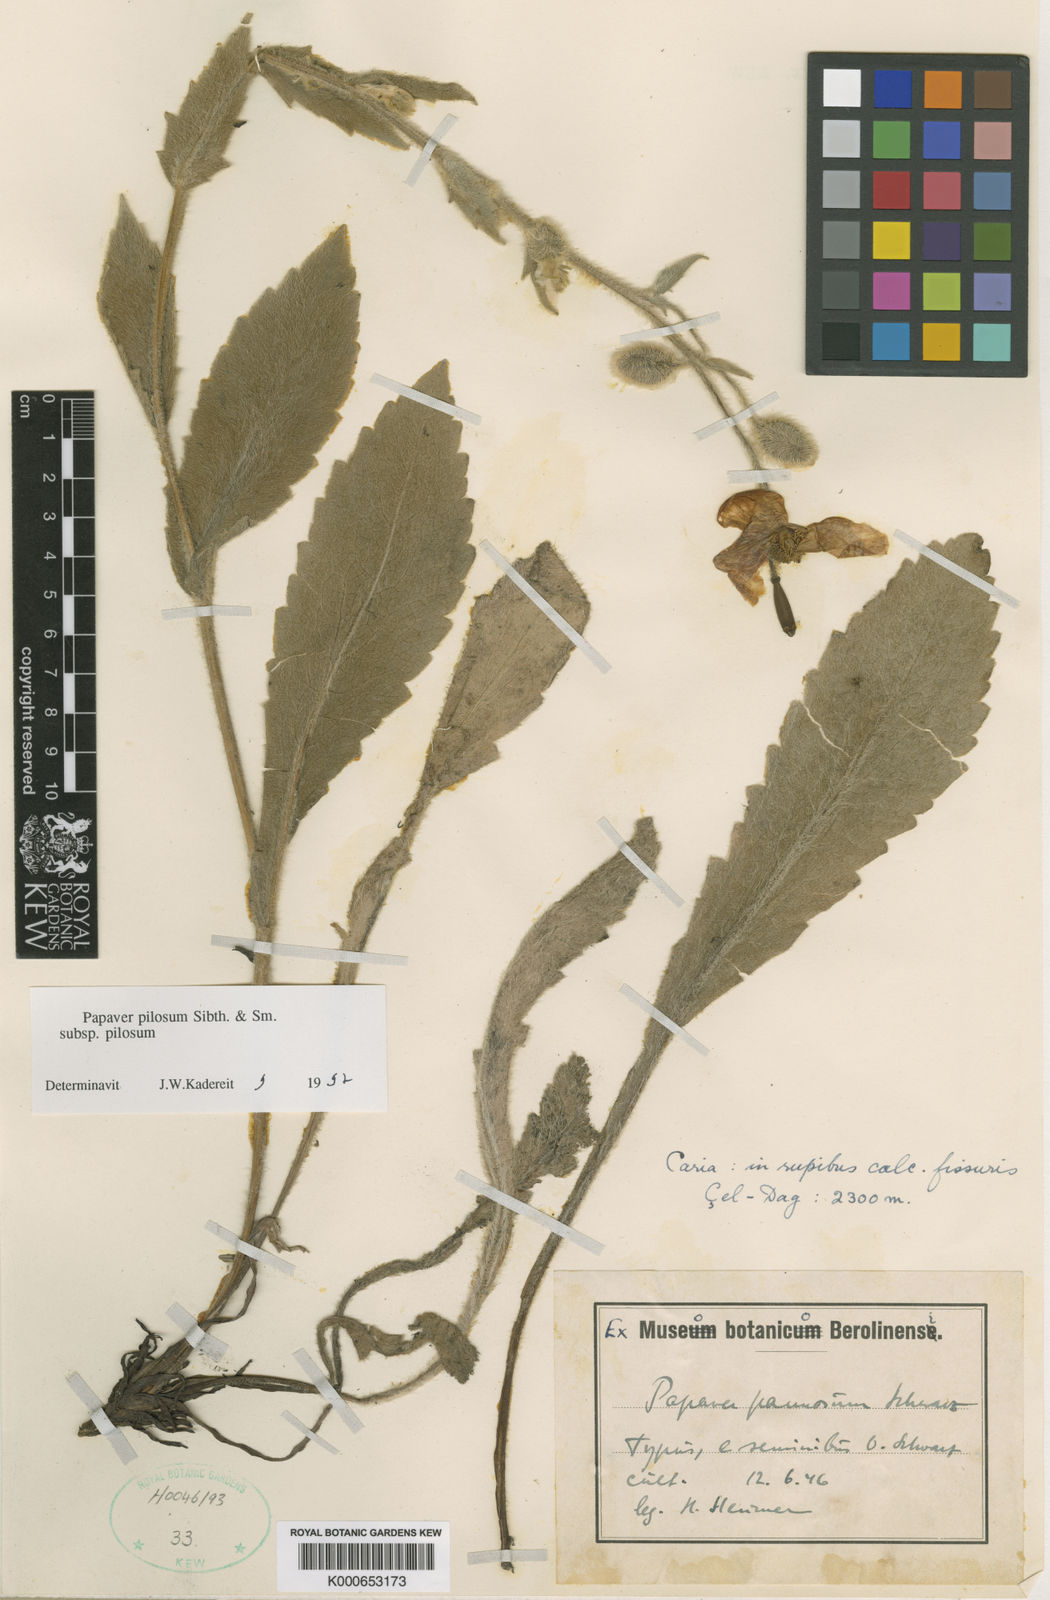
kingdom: Plantae
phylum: Tracheophyta
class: Magnoliopsida
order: Ranunculales
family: Papaveraceae
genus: Papaver
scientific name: Papaver pilosum
